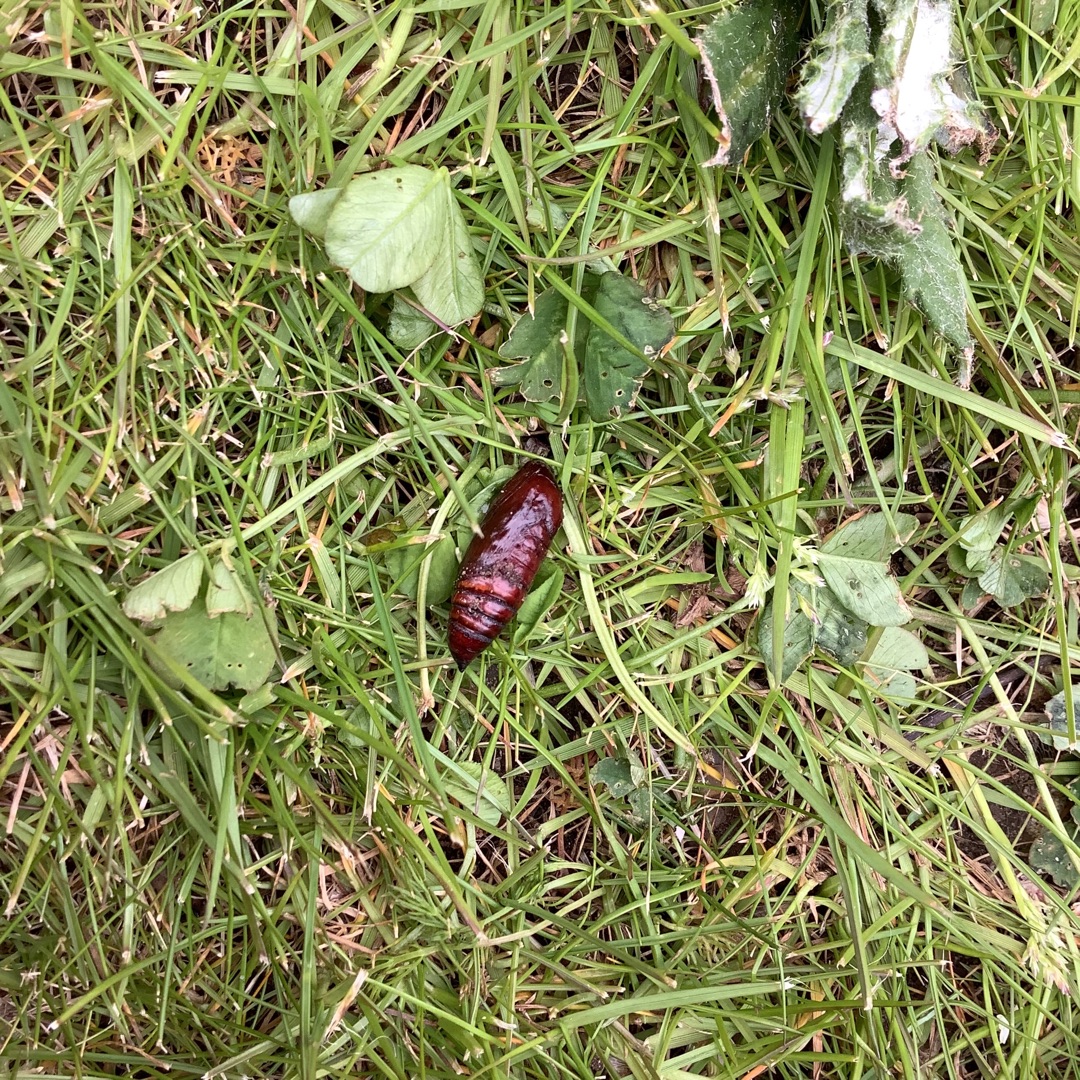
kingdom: Animalia
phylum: Arthropoda
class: Insecta
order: Lepidoptera
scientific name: Lepidoptera
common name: Sommerfugle
